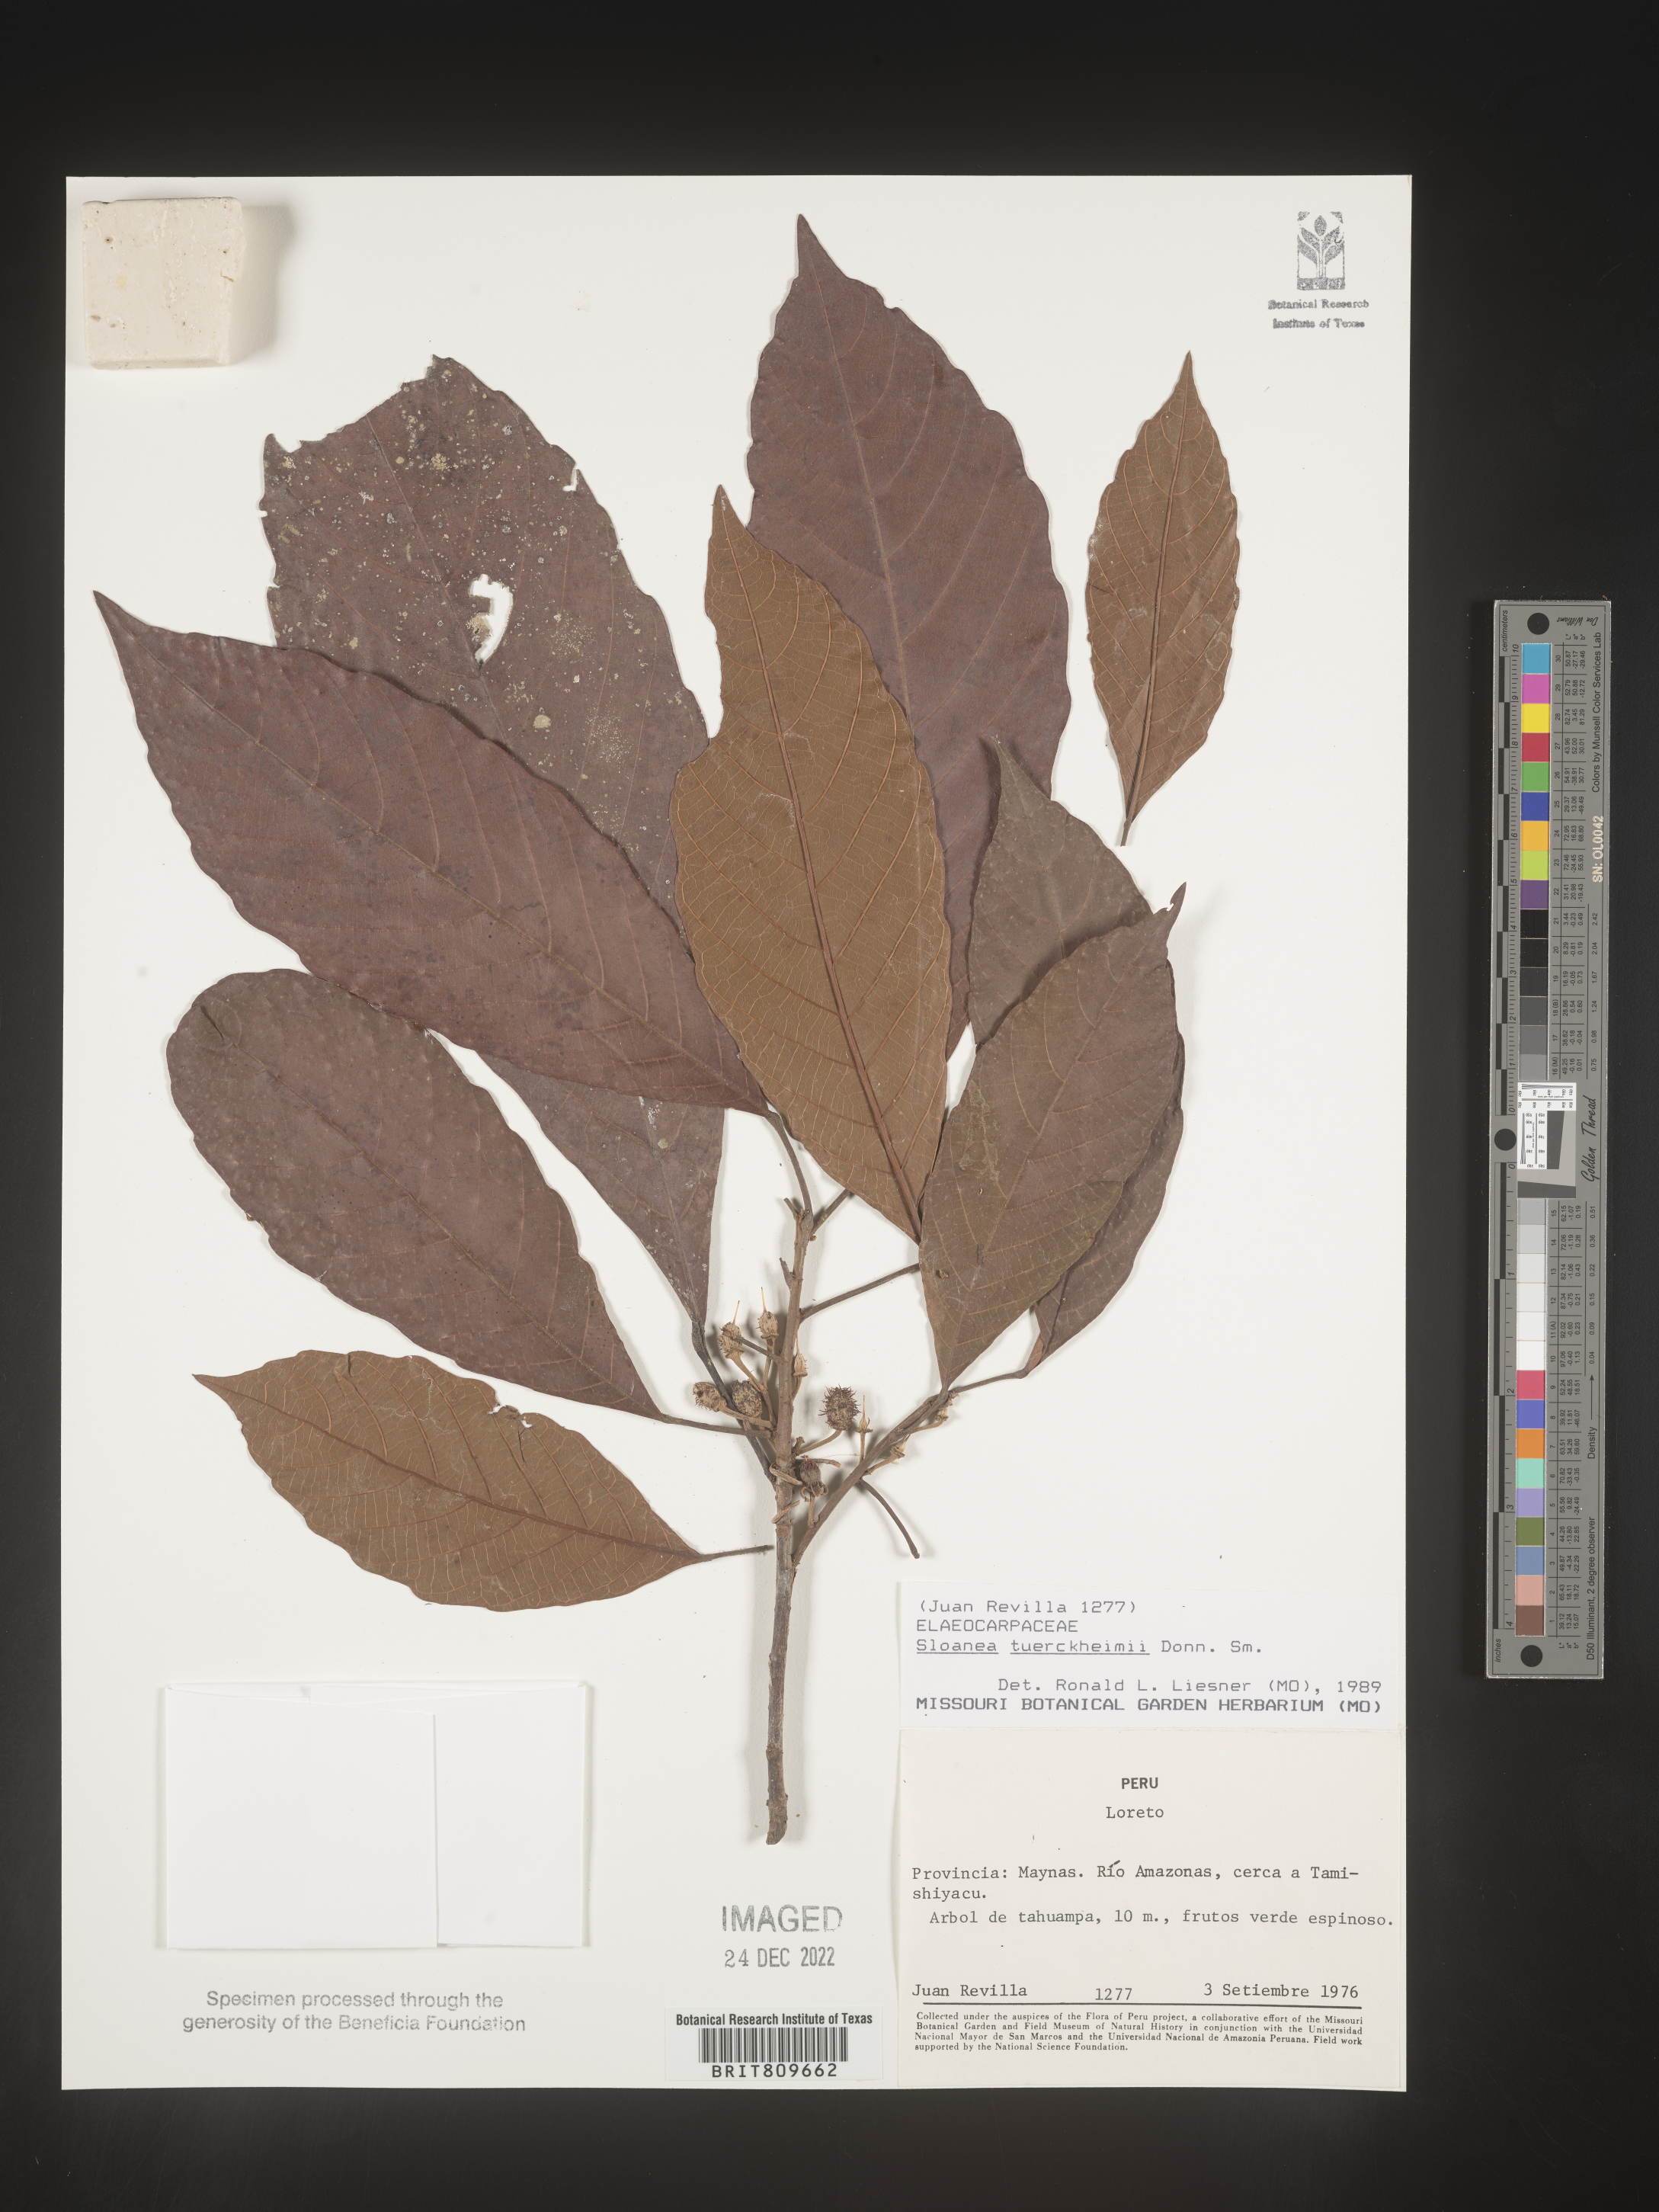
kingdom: Plantae
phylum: Tracheophyta
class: Magnoliopsida
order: Oxalidales
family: Elaeocarpaceae
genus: Sloanea
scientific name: Sloanea
